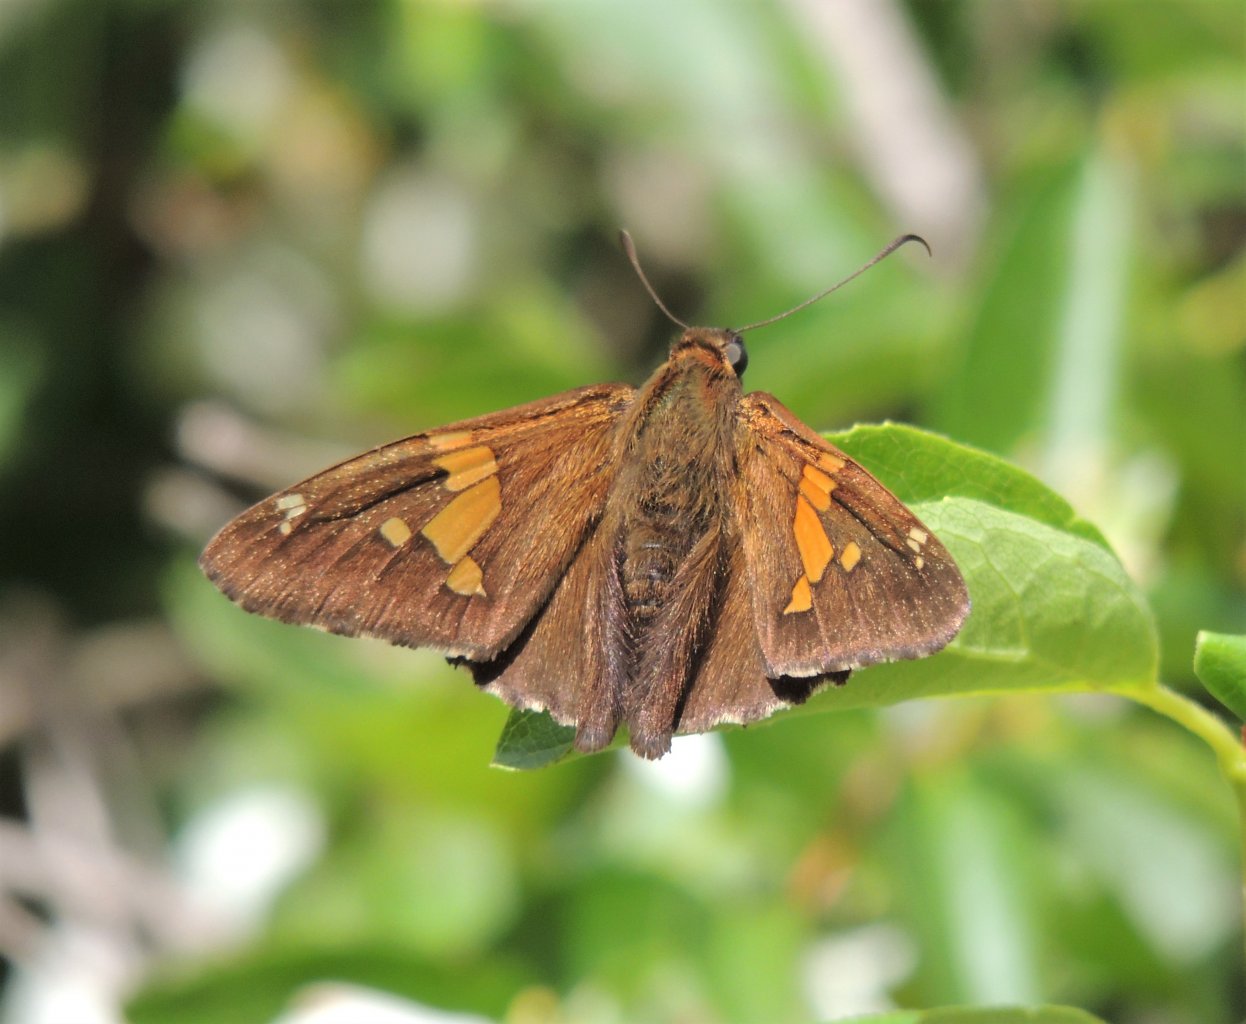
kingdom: Animalia
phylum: Arthropoda
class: Insecta
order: Lepidoptera
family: Hesperiidae
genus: Epargyreus
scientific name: Epargyreus clarus
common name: Silver-spotted Skipper
